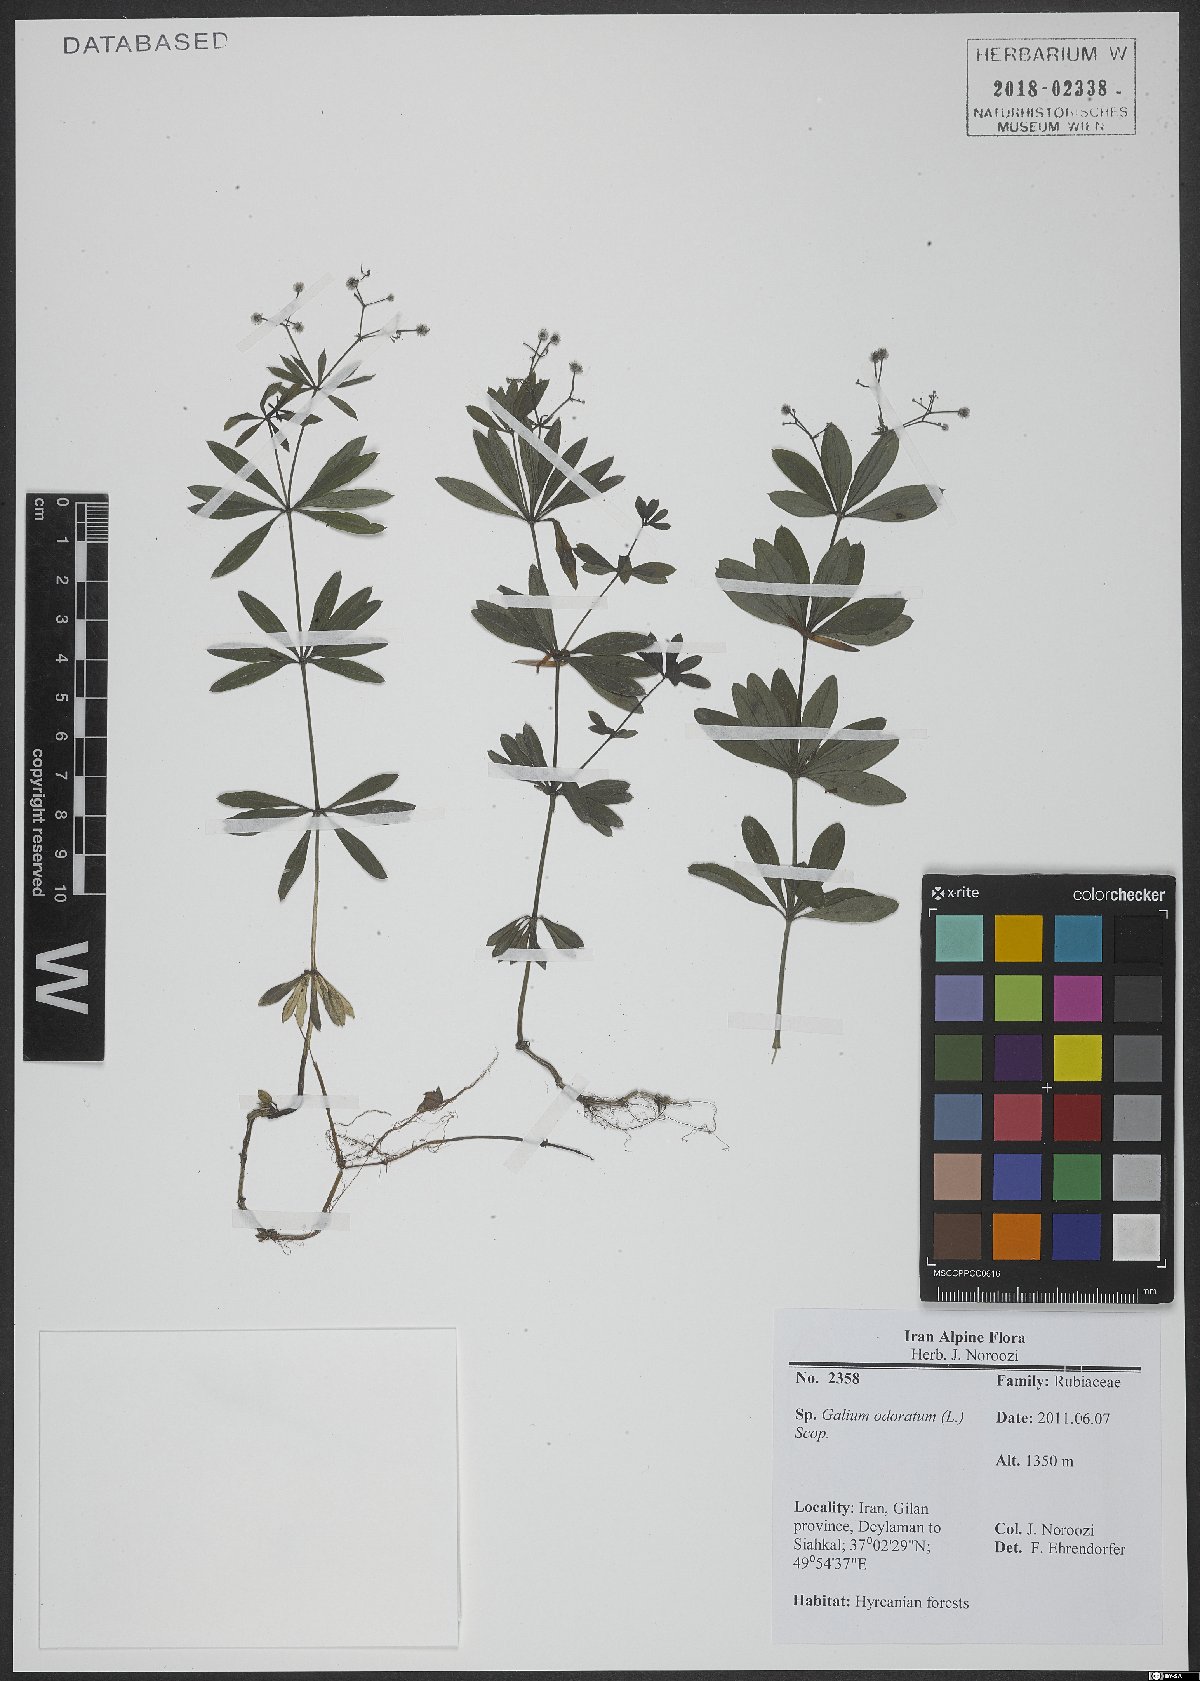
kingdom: Plantae
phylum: Tracheophyta
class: Magnoliopsida
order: Gentianales
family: Rubiaceae
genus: Galium
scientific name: Galium odoratum
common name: Sweet woodruff
